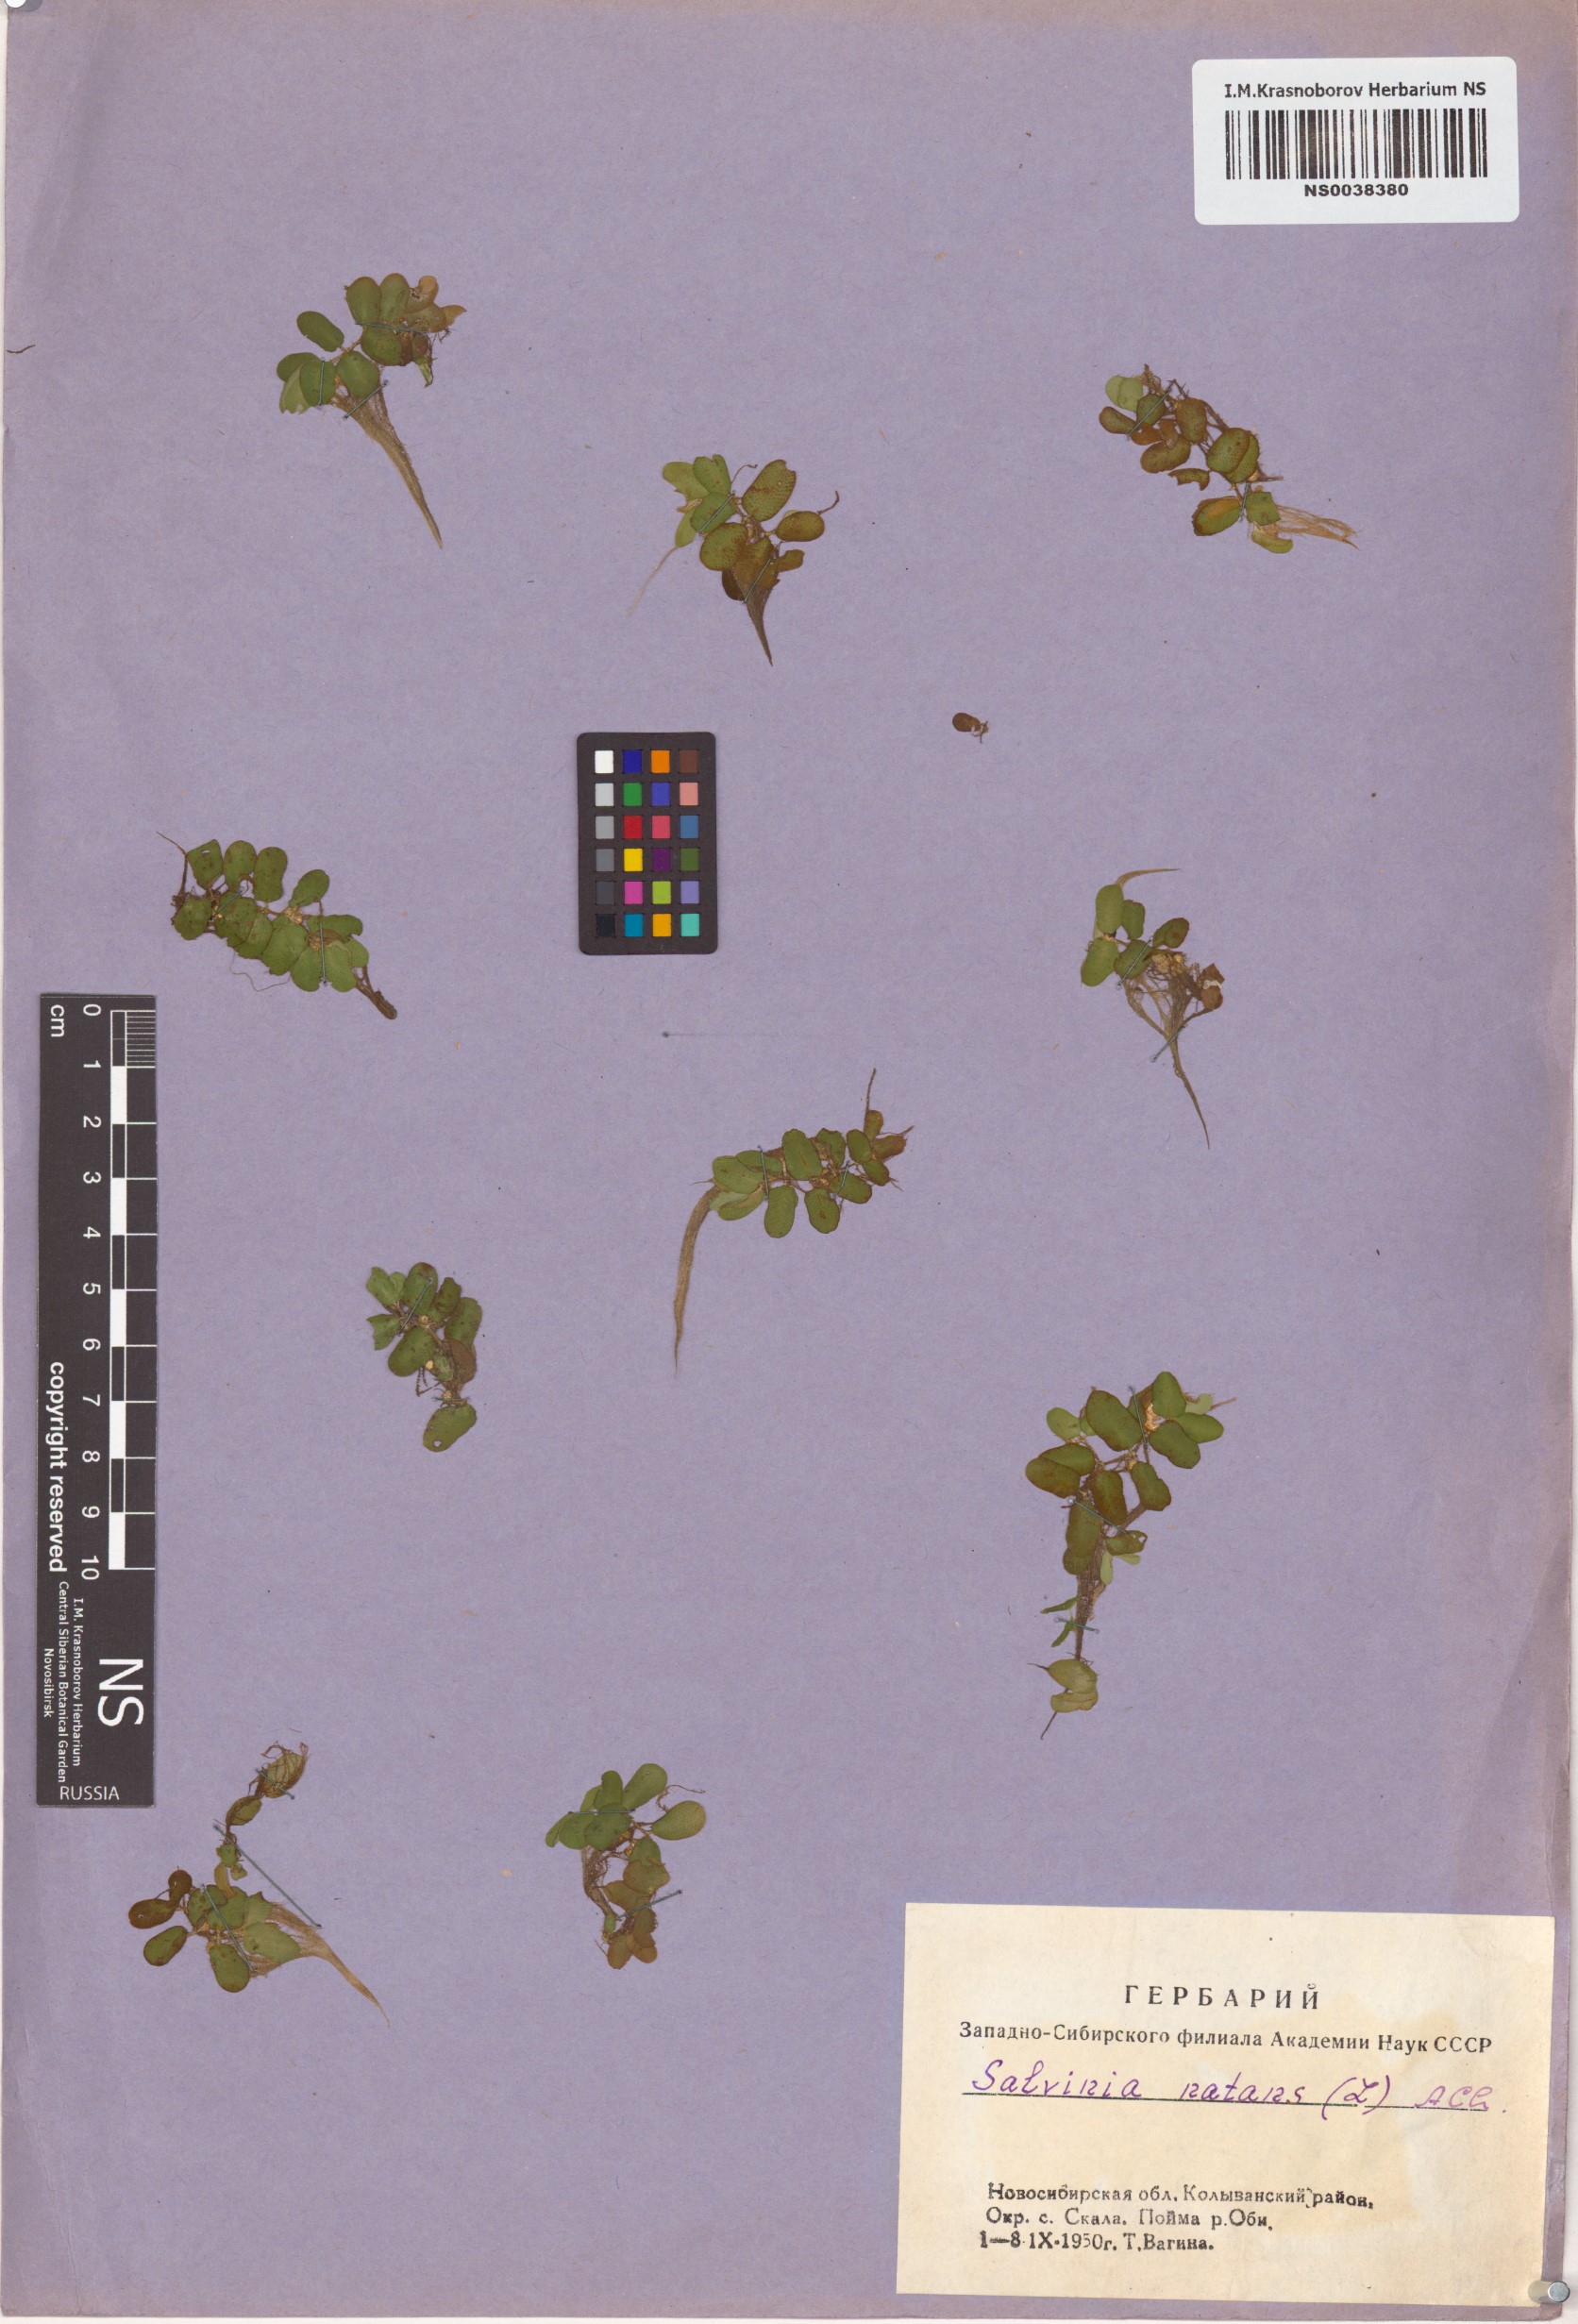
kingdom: Plantae
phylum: Tracheophyta
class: Polypodiopsida
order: Salviniales
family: Salviniaceae
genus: Salvinia
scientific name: Salvinia natans
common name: Floating fern
